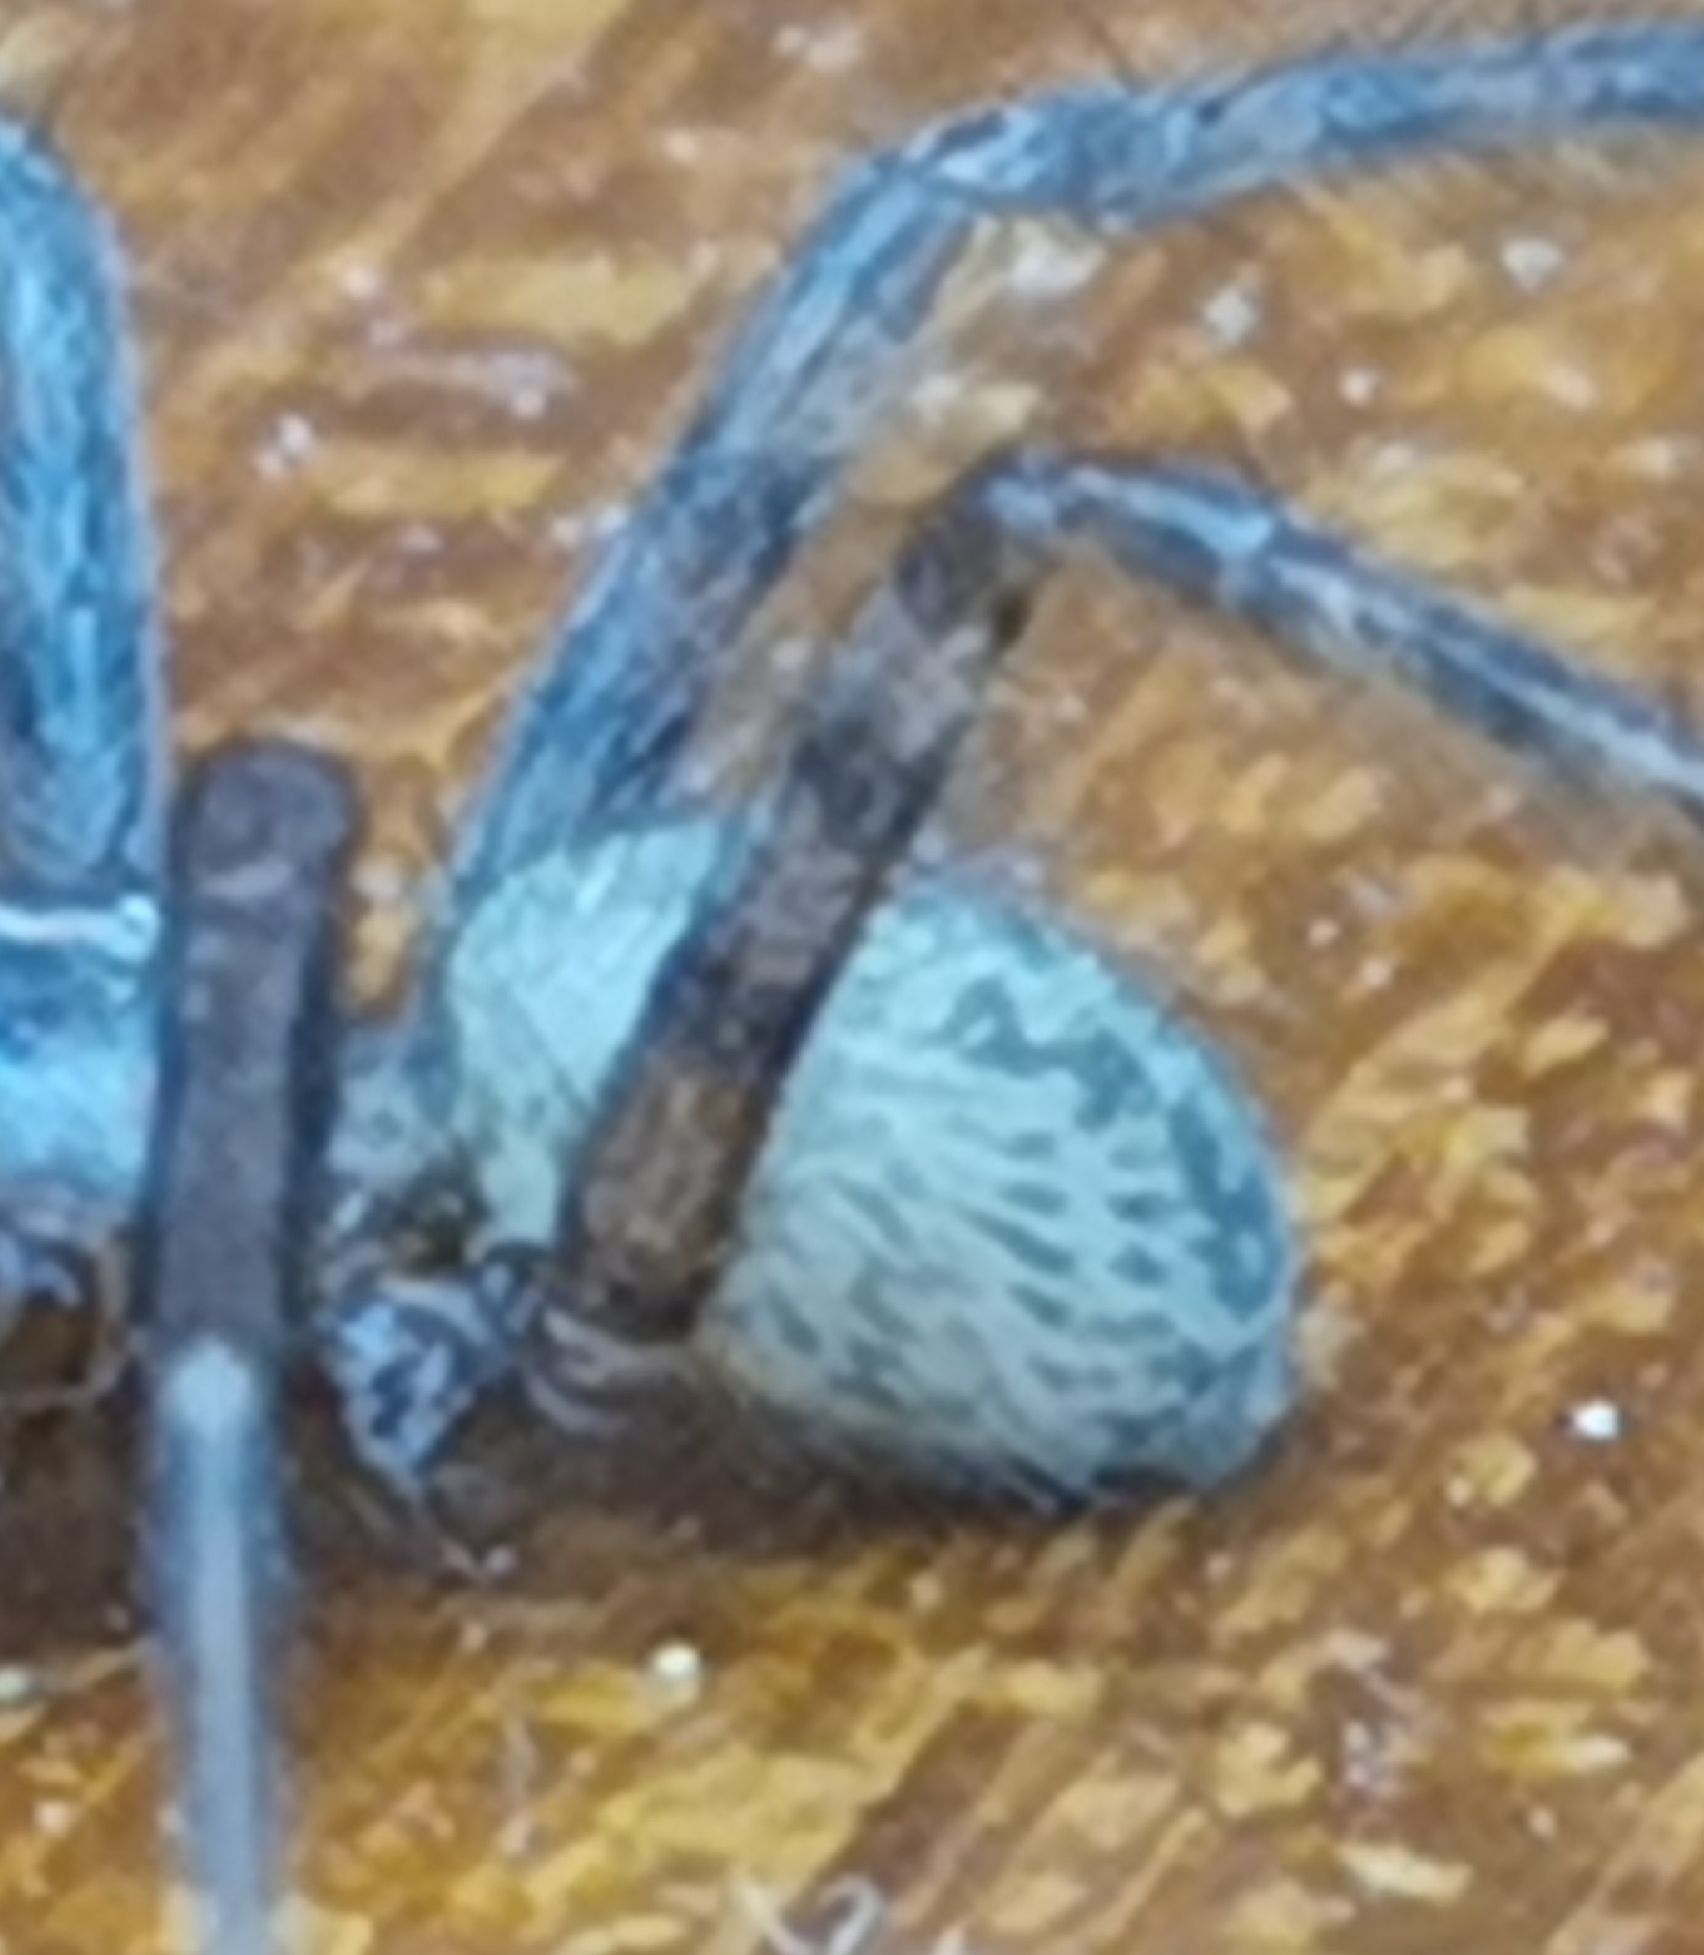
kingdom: Animalia
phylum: Arthropoda
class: Arachnida
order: Araneae
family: Agelenidae
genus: Tegenaria
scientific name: Tegenaria domestica
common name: Lille husedderkop
